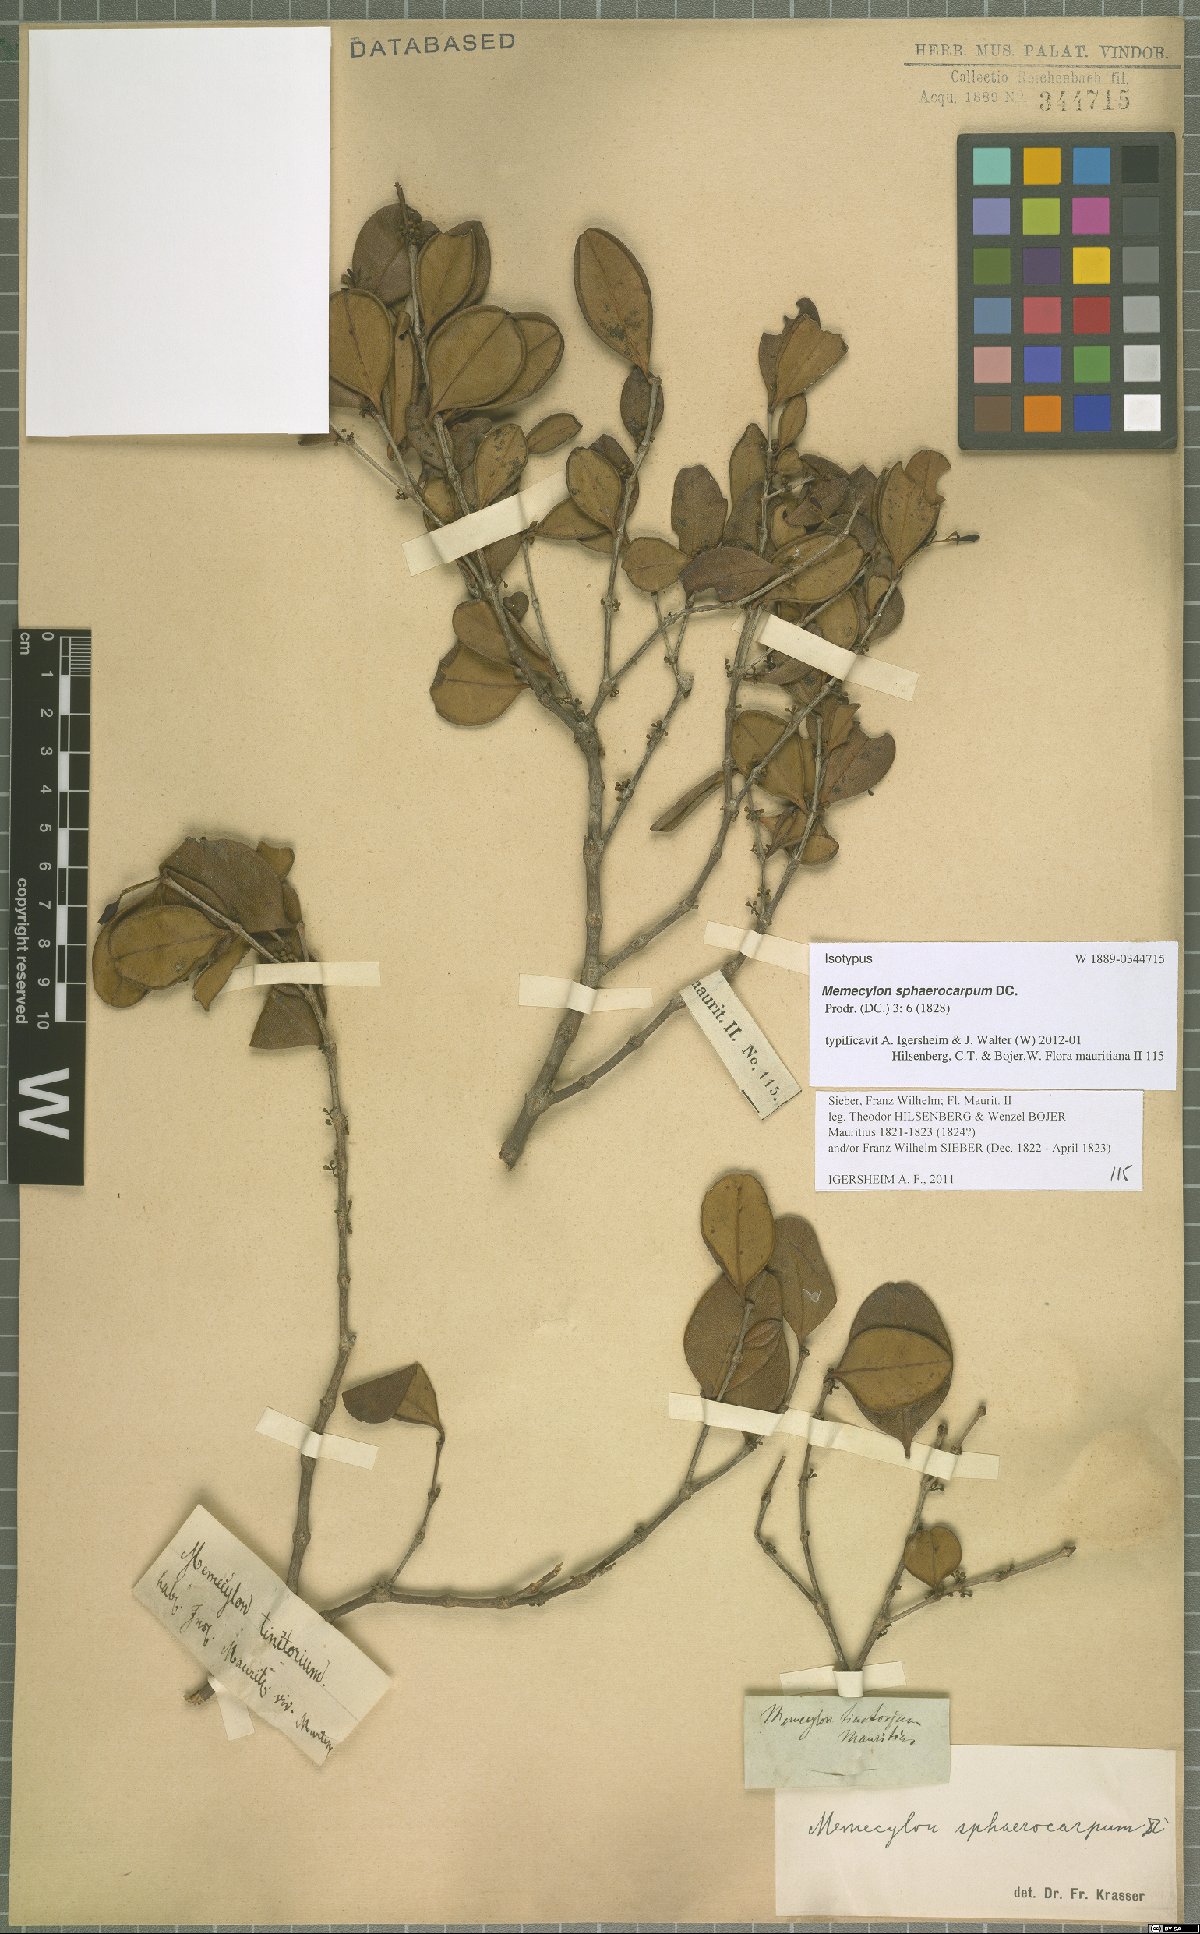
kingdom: Plantae
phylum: Tracheophyta
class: Magnoliopsida
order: Myrtales
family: Melastomataceae
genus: Memecylon
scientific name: Memecylon ovatifolium
